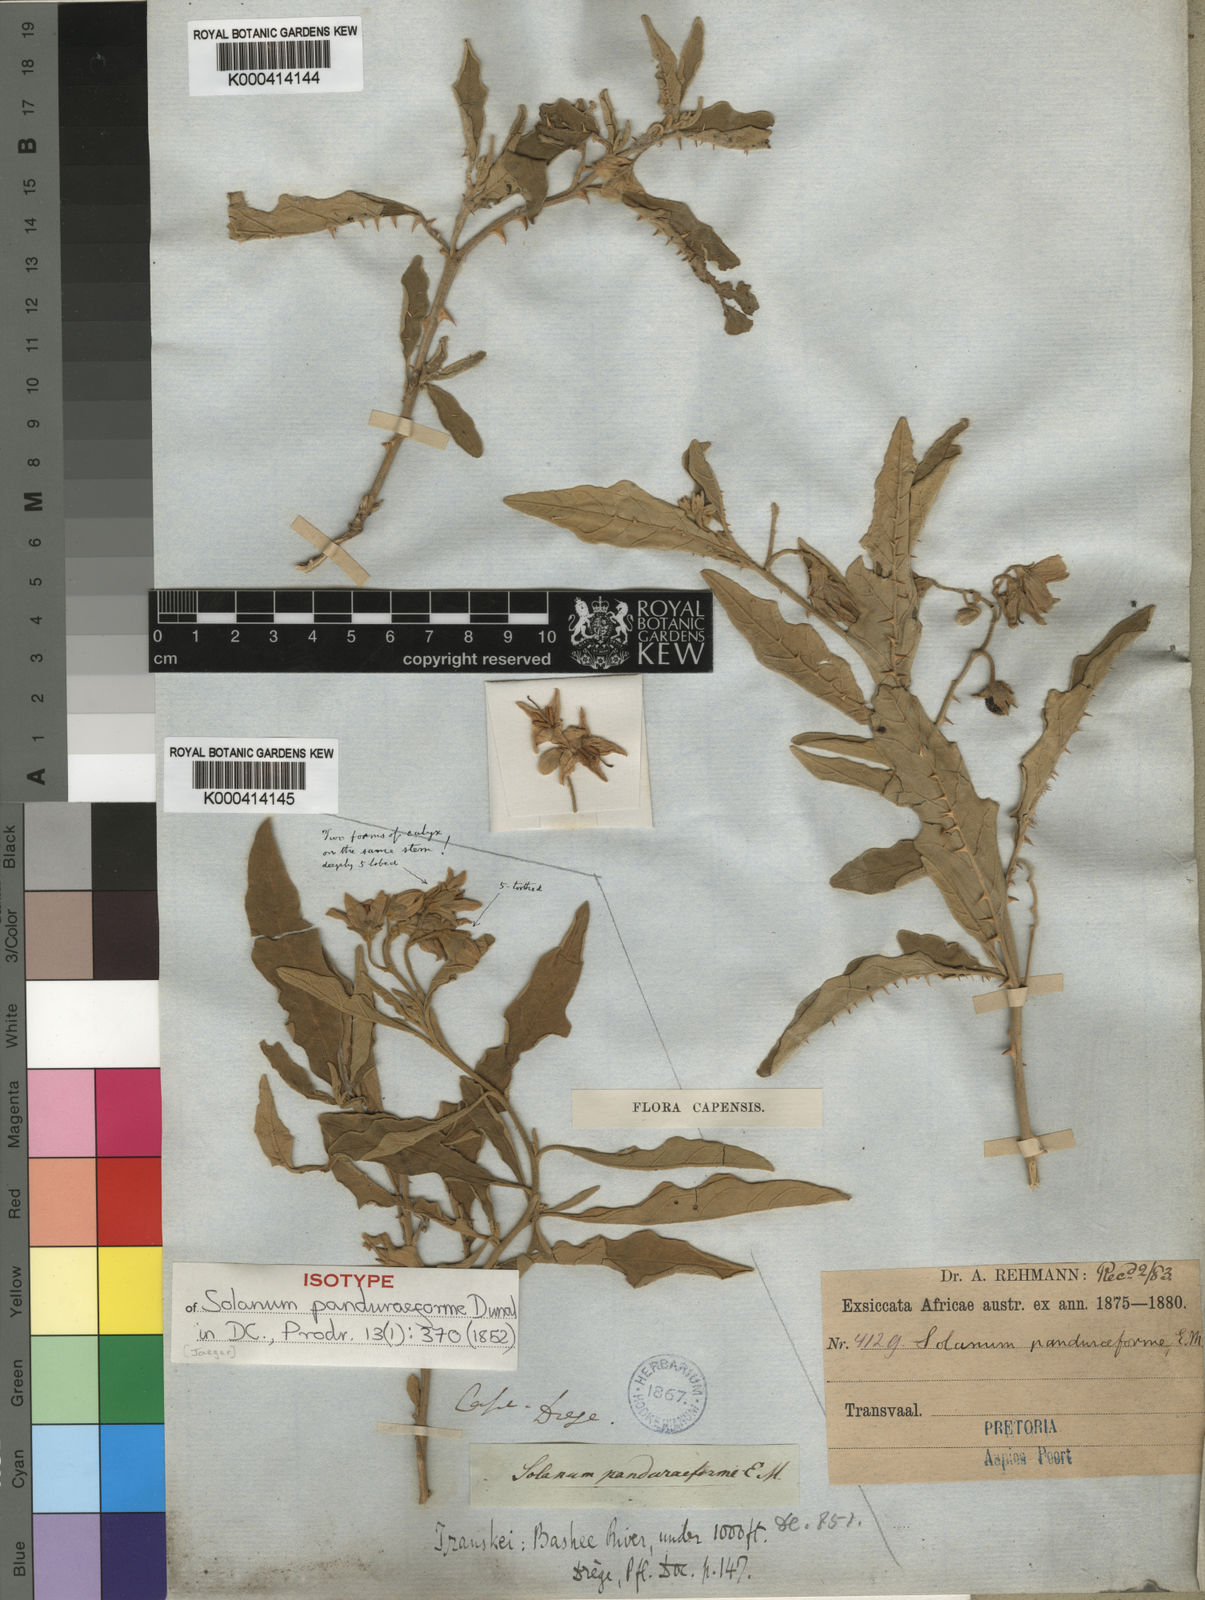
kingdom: Plantae
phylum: Tracheophyta
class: Magnoliopsida
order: Solanales
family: Solanaceae
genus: Solanum
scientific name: Solanum campylacanthum
